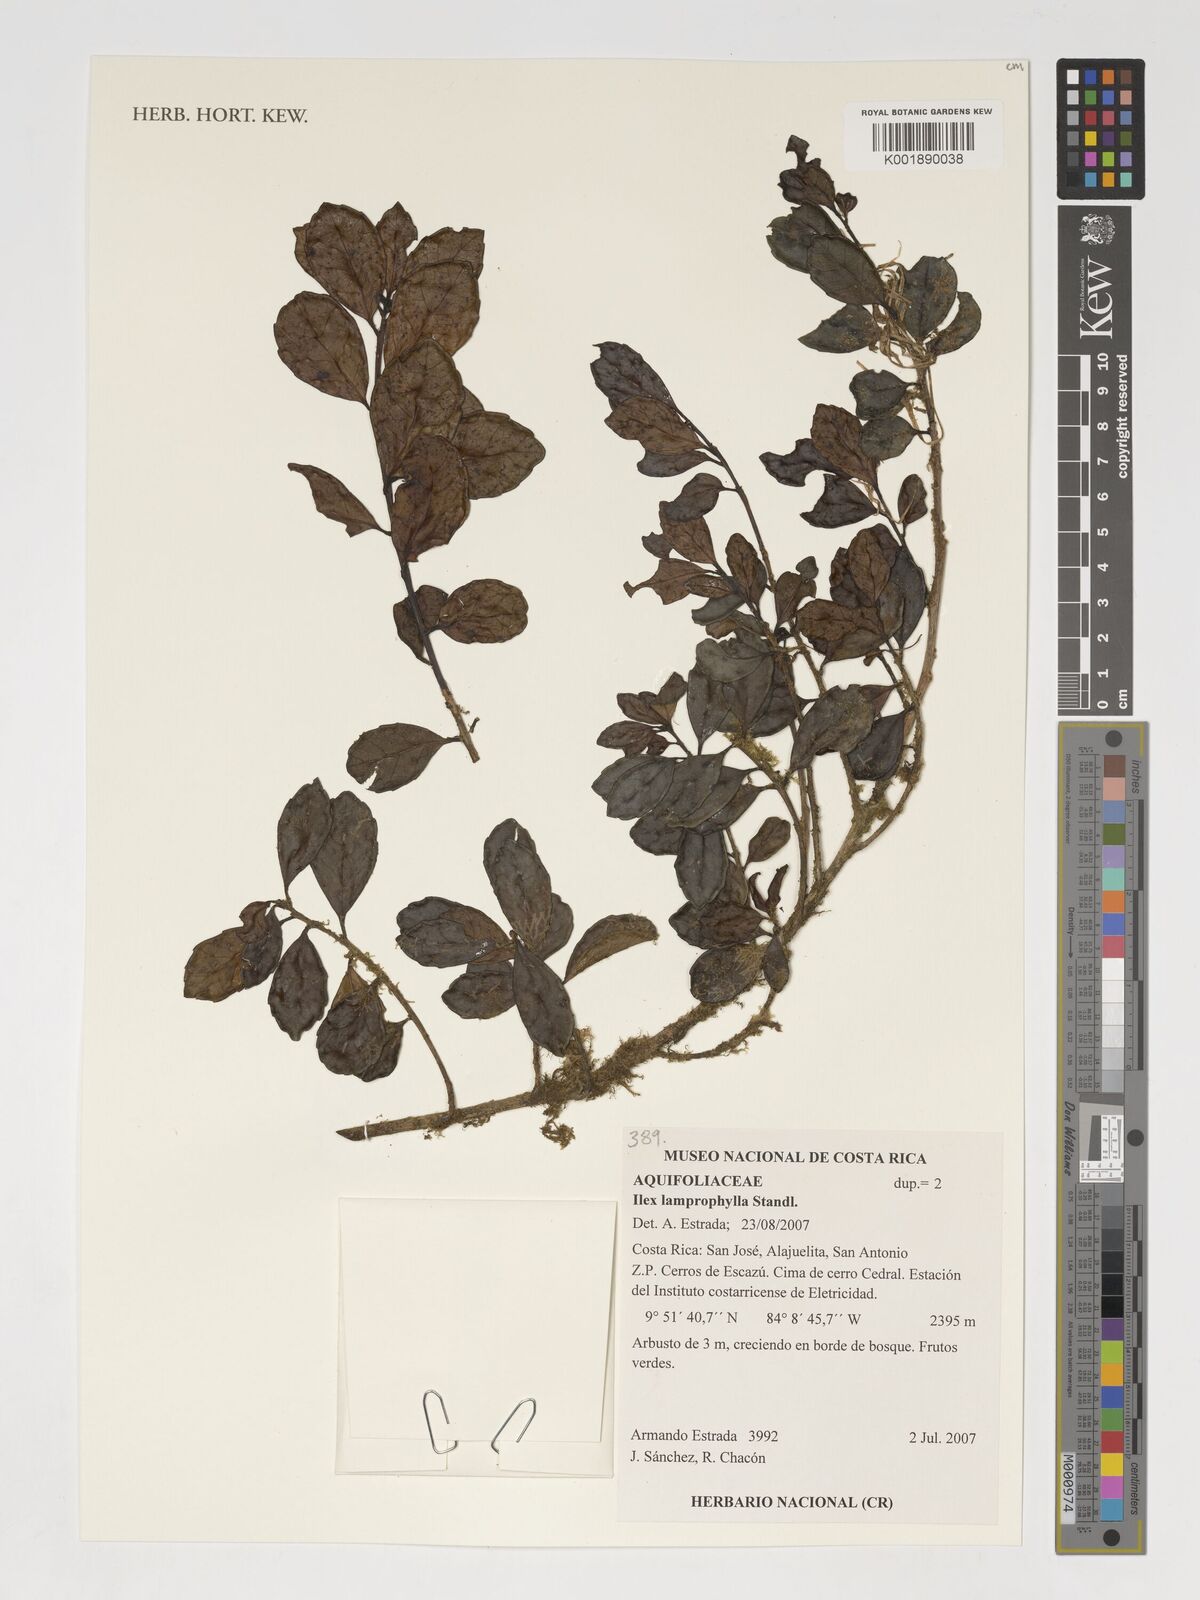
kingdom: Plantae
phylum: Tracheophyta
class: Magnoliopsida
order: Aquifoliales
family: Aquifoliaceae
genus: Ilex
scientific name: Ilex lamprophylla
